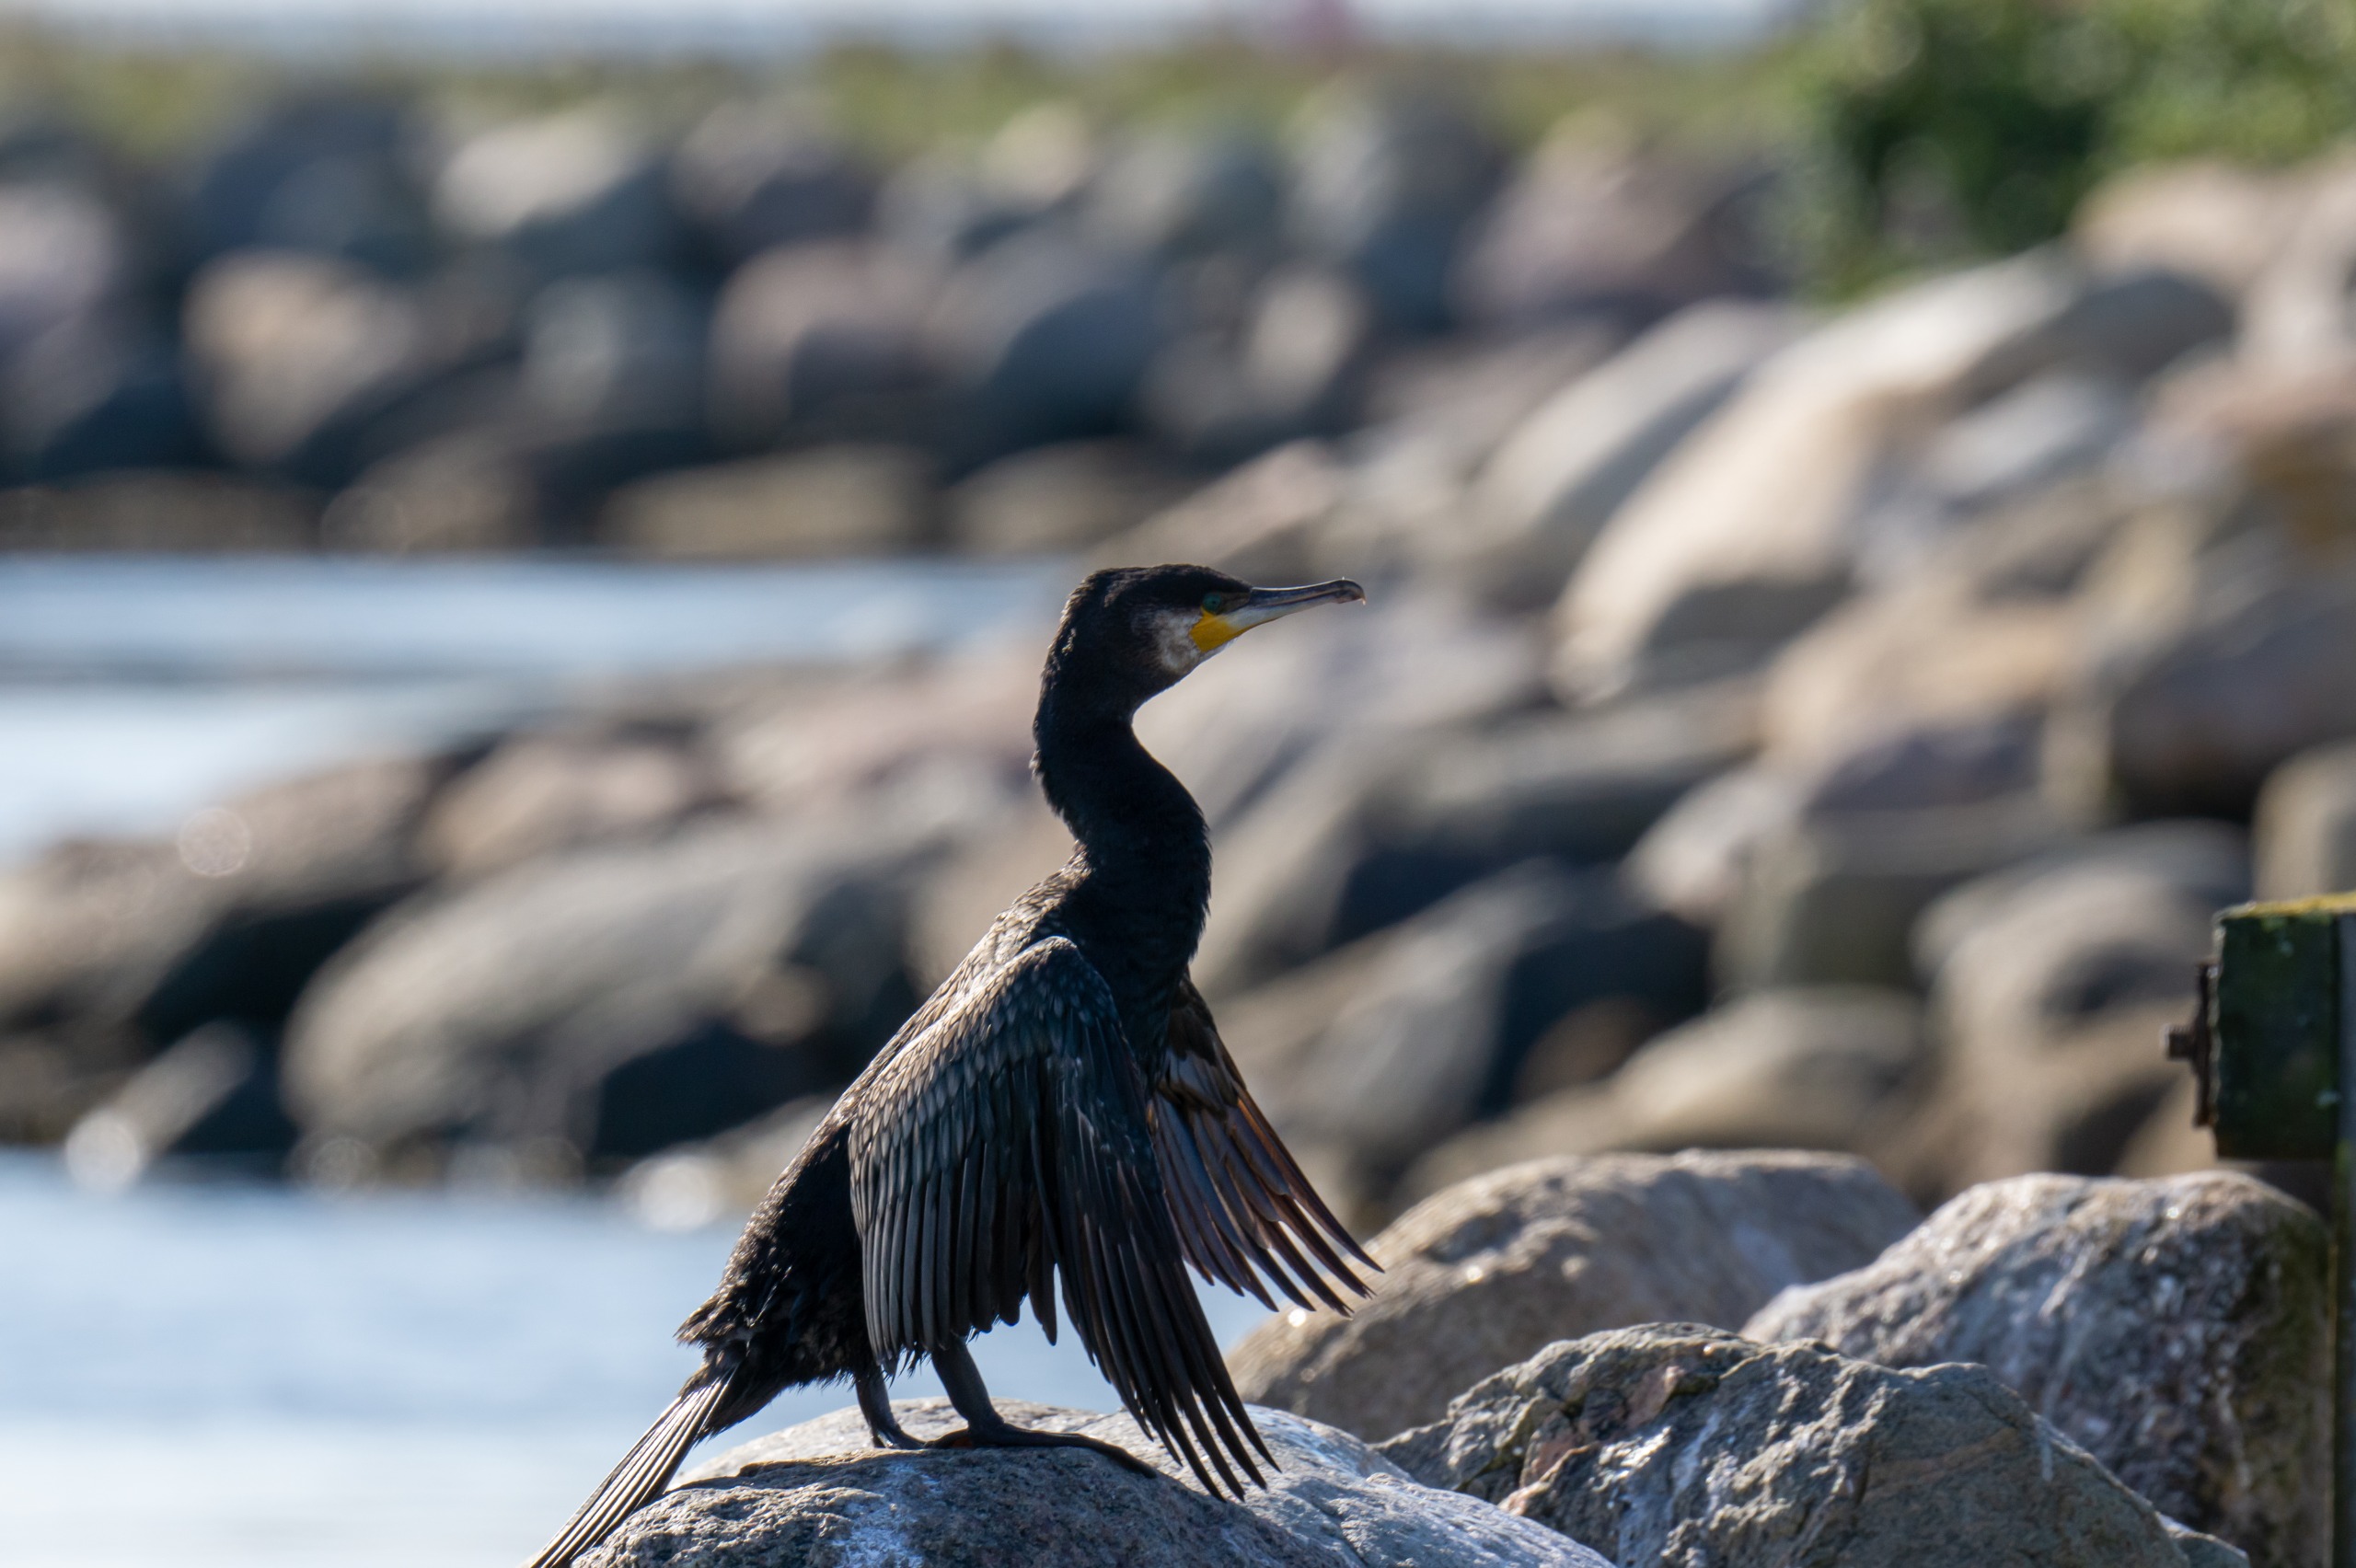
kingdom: Animalia
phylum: Chordata
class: Aves
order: Suliformes
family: Phalacrocoracidae
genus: Phalacrocorax
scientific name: Phalacrocorax carbo
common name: Skarv
